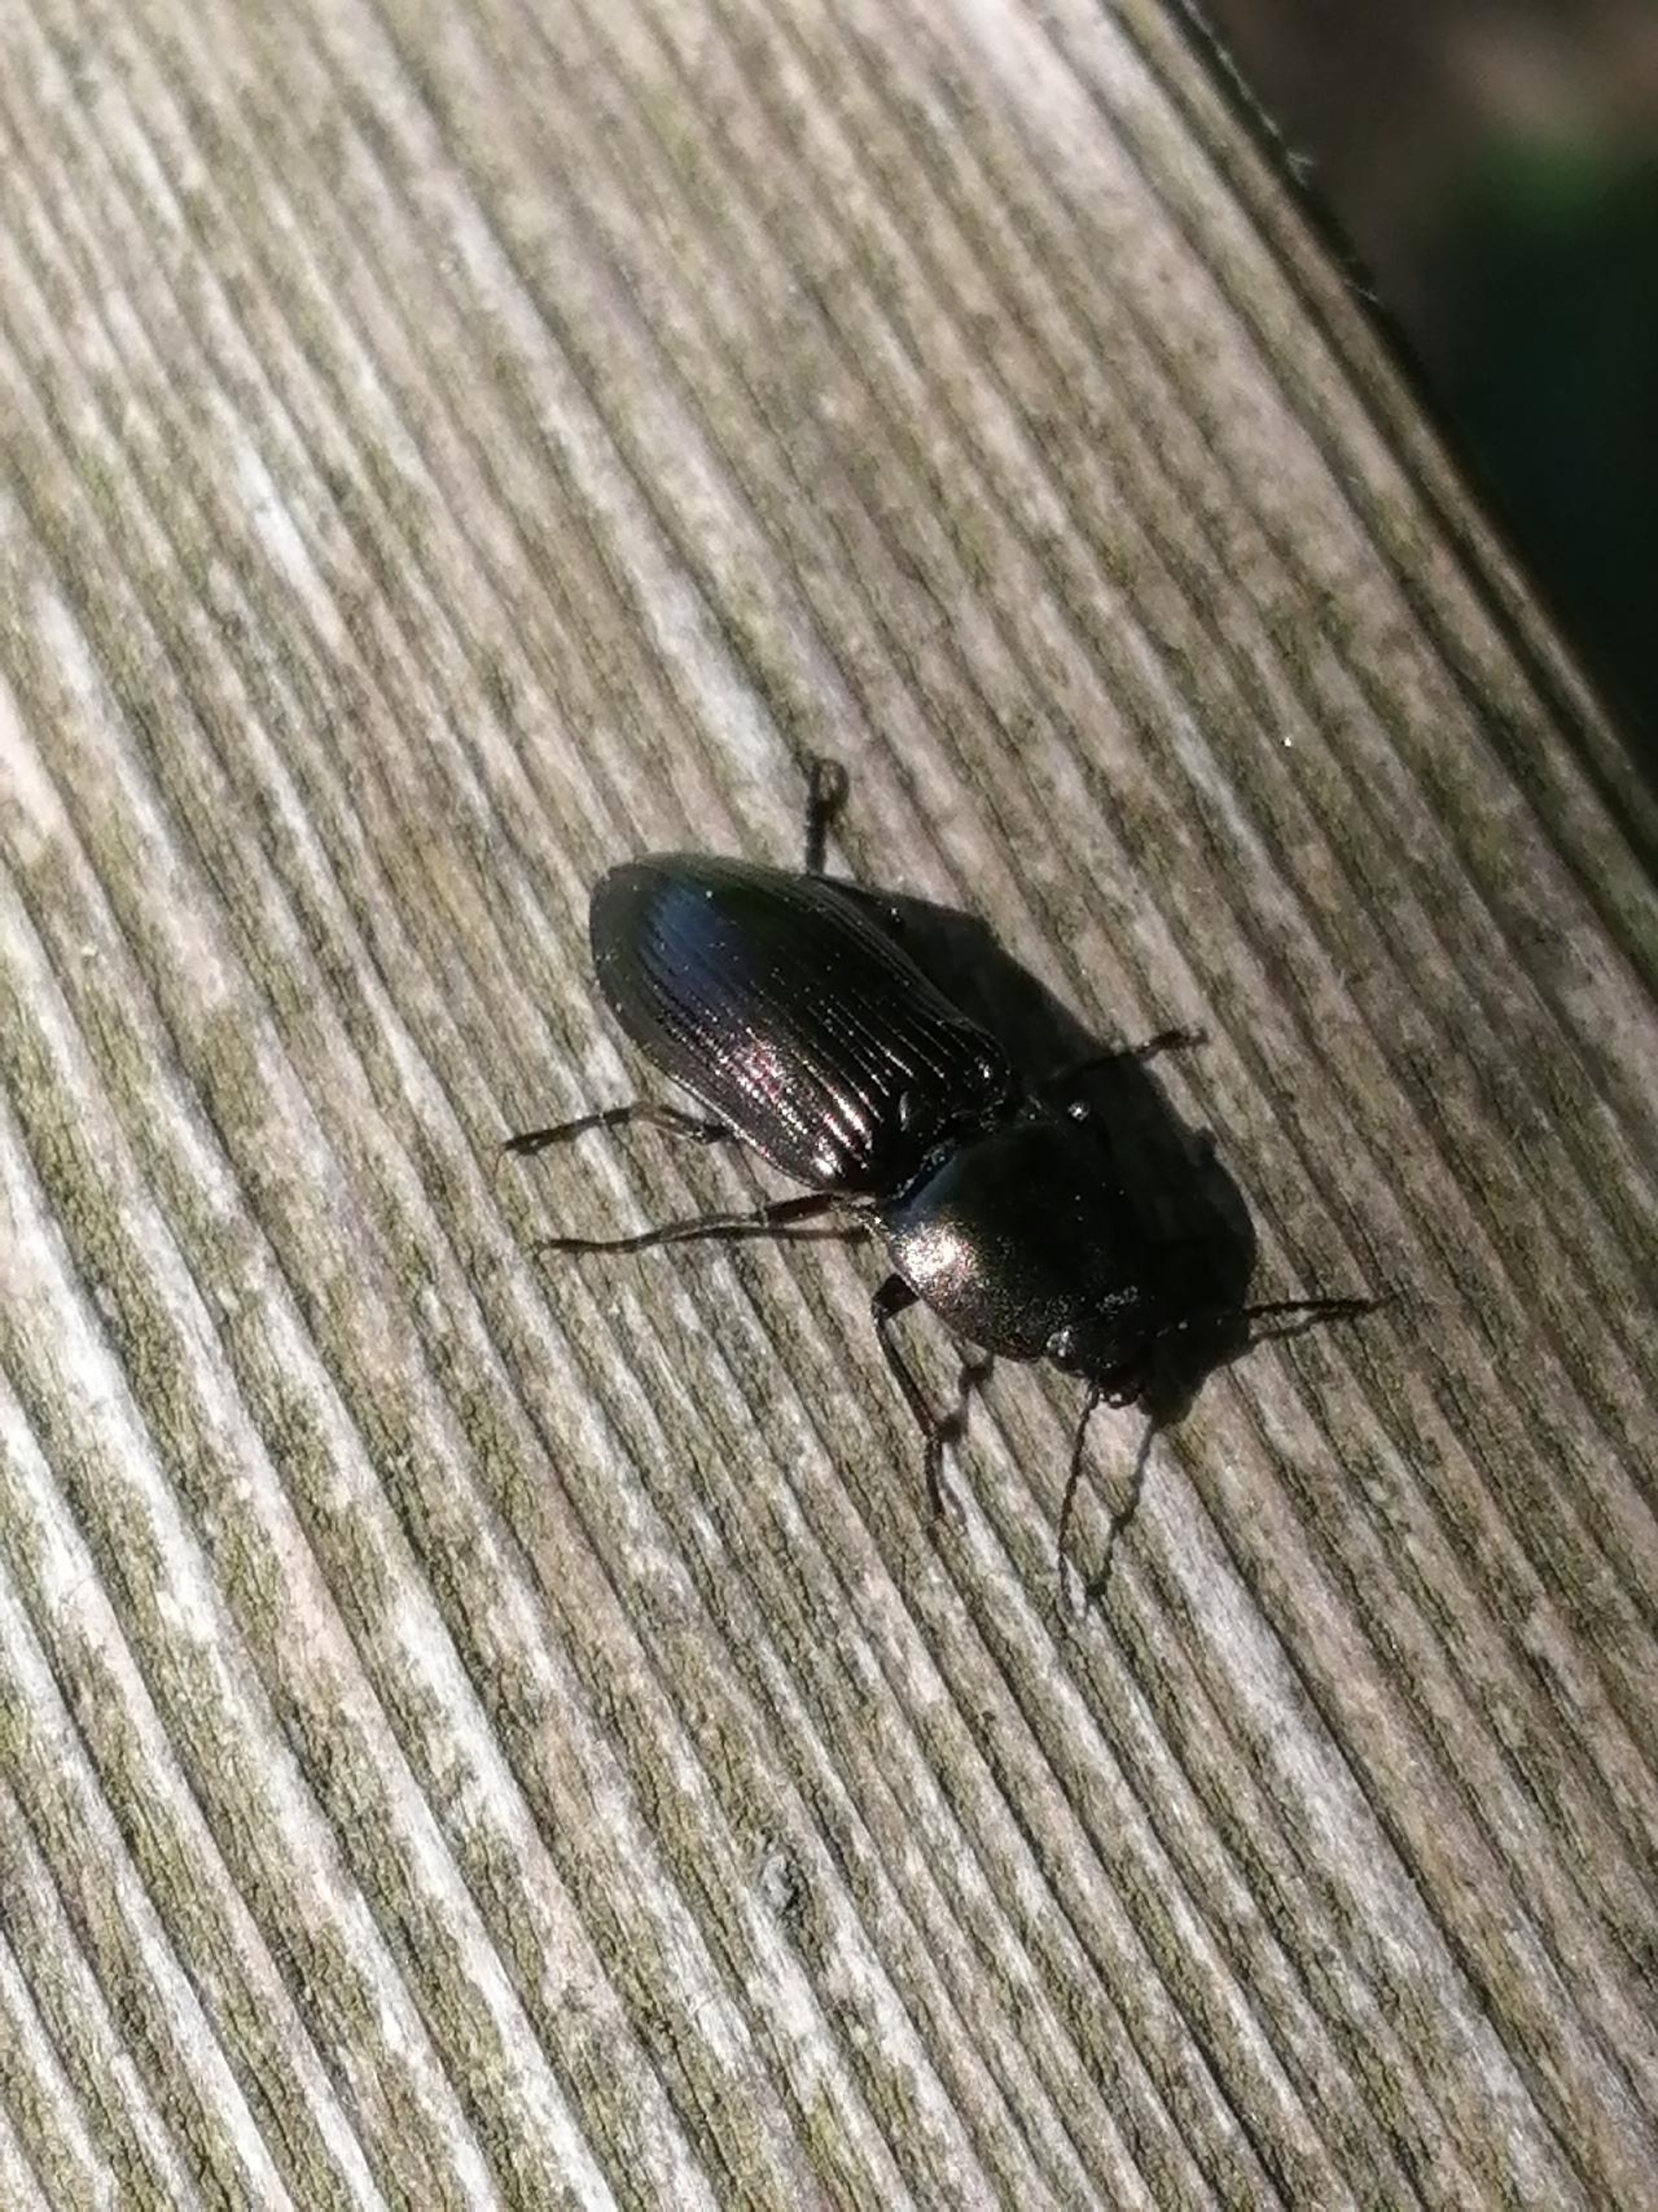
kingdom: Animalia
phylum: Arthropoda
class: Insecta
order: Coleoptera
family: Elateridae
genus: Selatosomus
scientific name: Selatosomus aeneus
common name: Kobbersmælder
